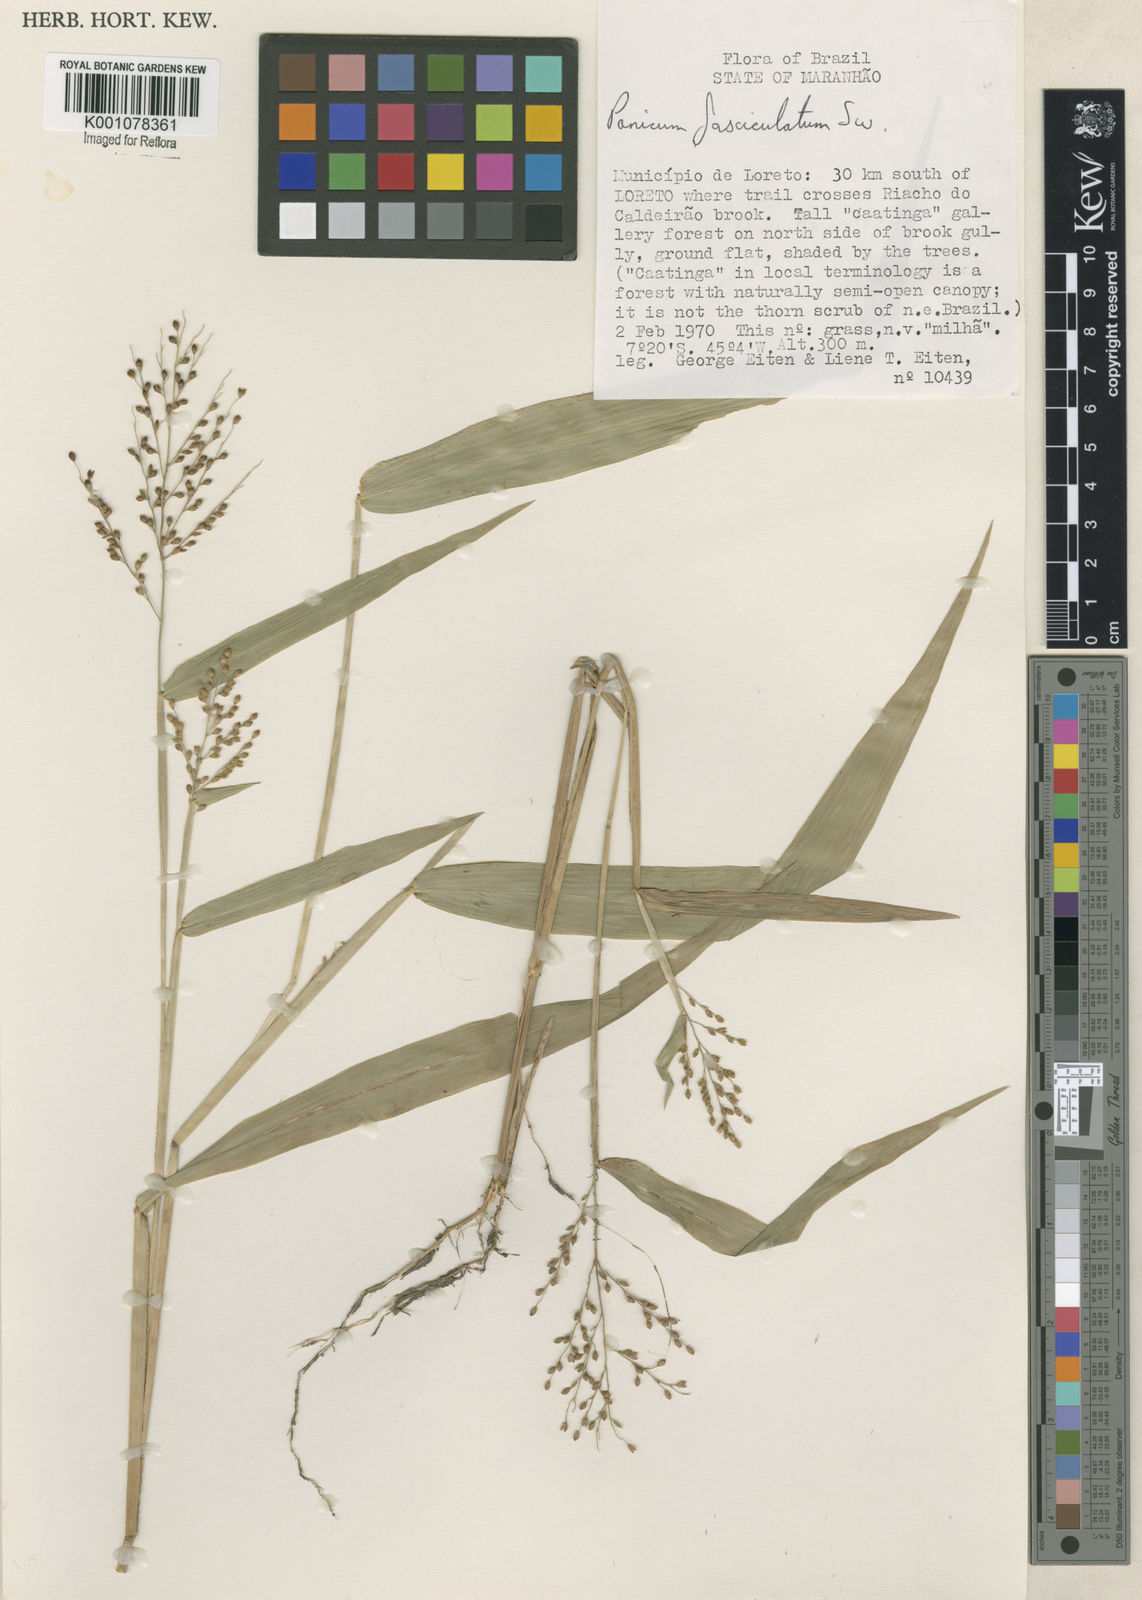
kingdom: Plantae
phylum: Tracheophyta
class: Liliopsida
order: Poales
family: Poaceae
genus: Urochloa
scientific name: Urochloa fusca
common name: Browntop signal grass
